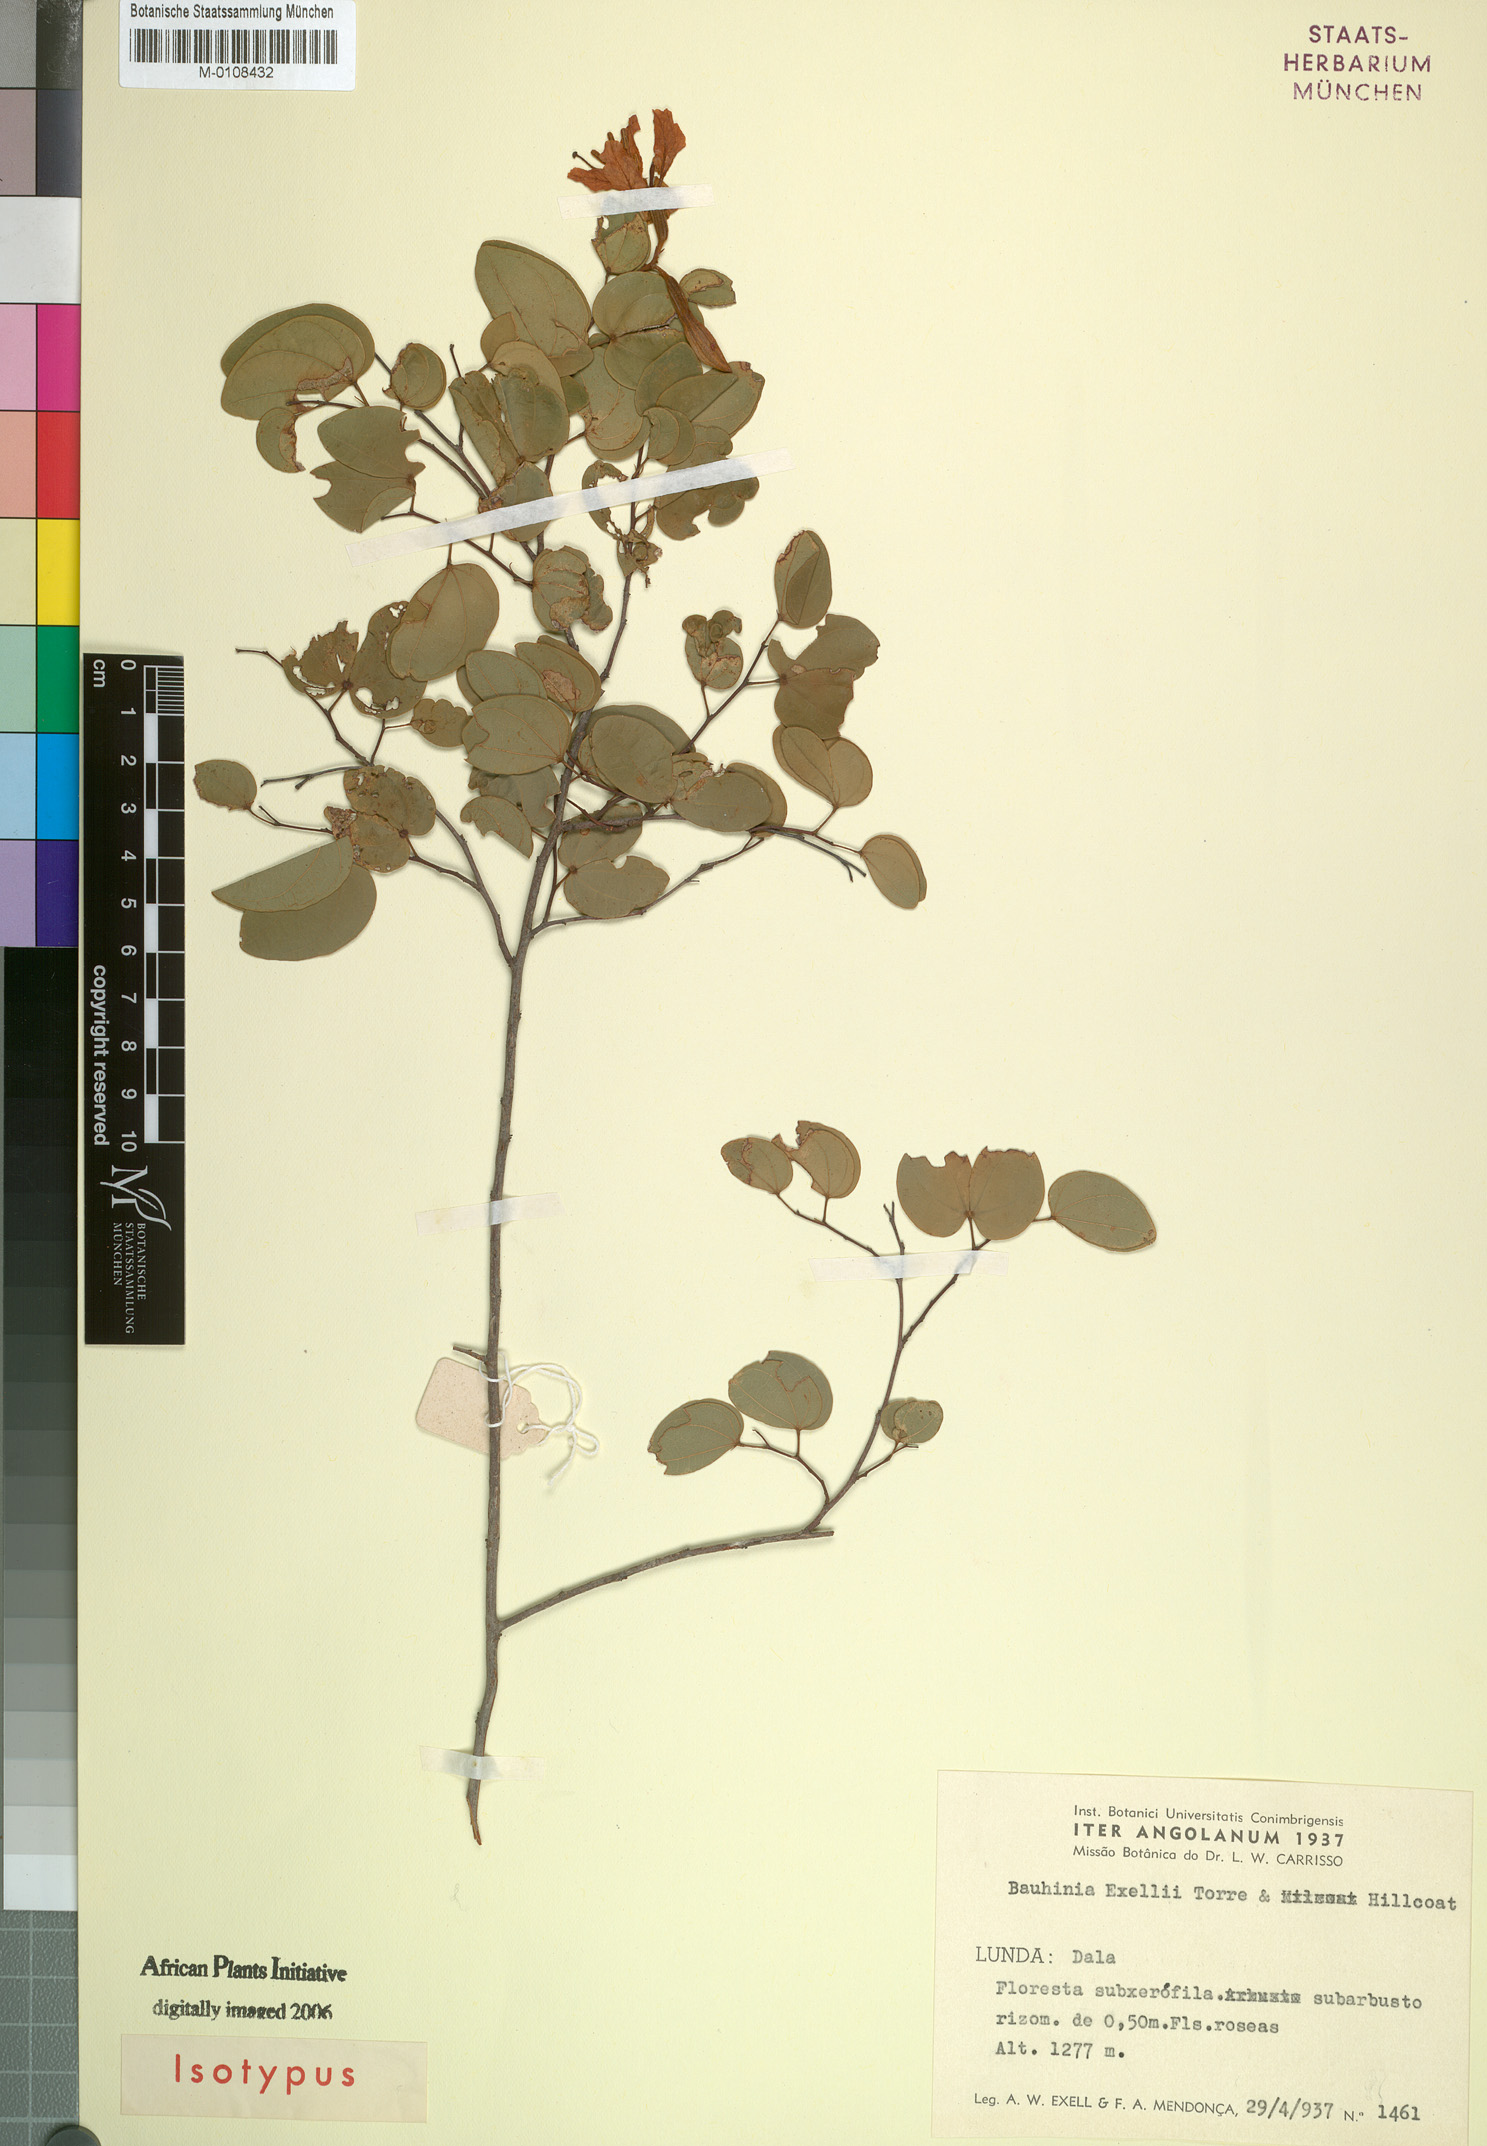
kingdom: Plantae
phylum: Tracheophyta
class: Magnoliopsida
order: Fabales
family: Fabaceae
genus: Bauhinia
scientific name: Bauhinia exellii
